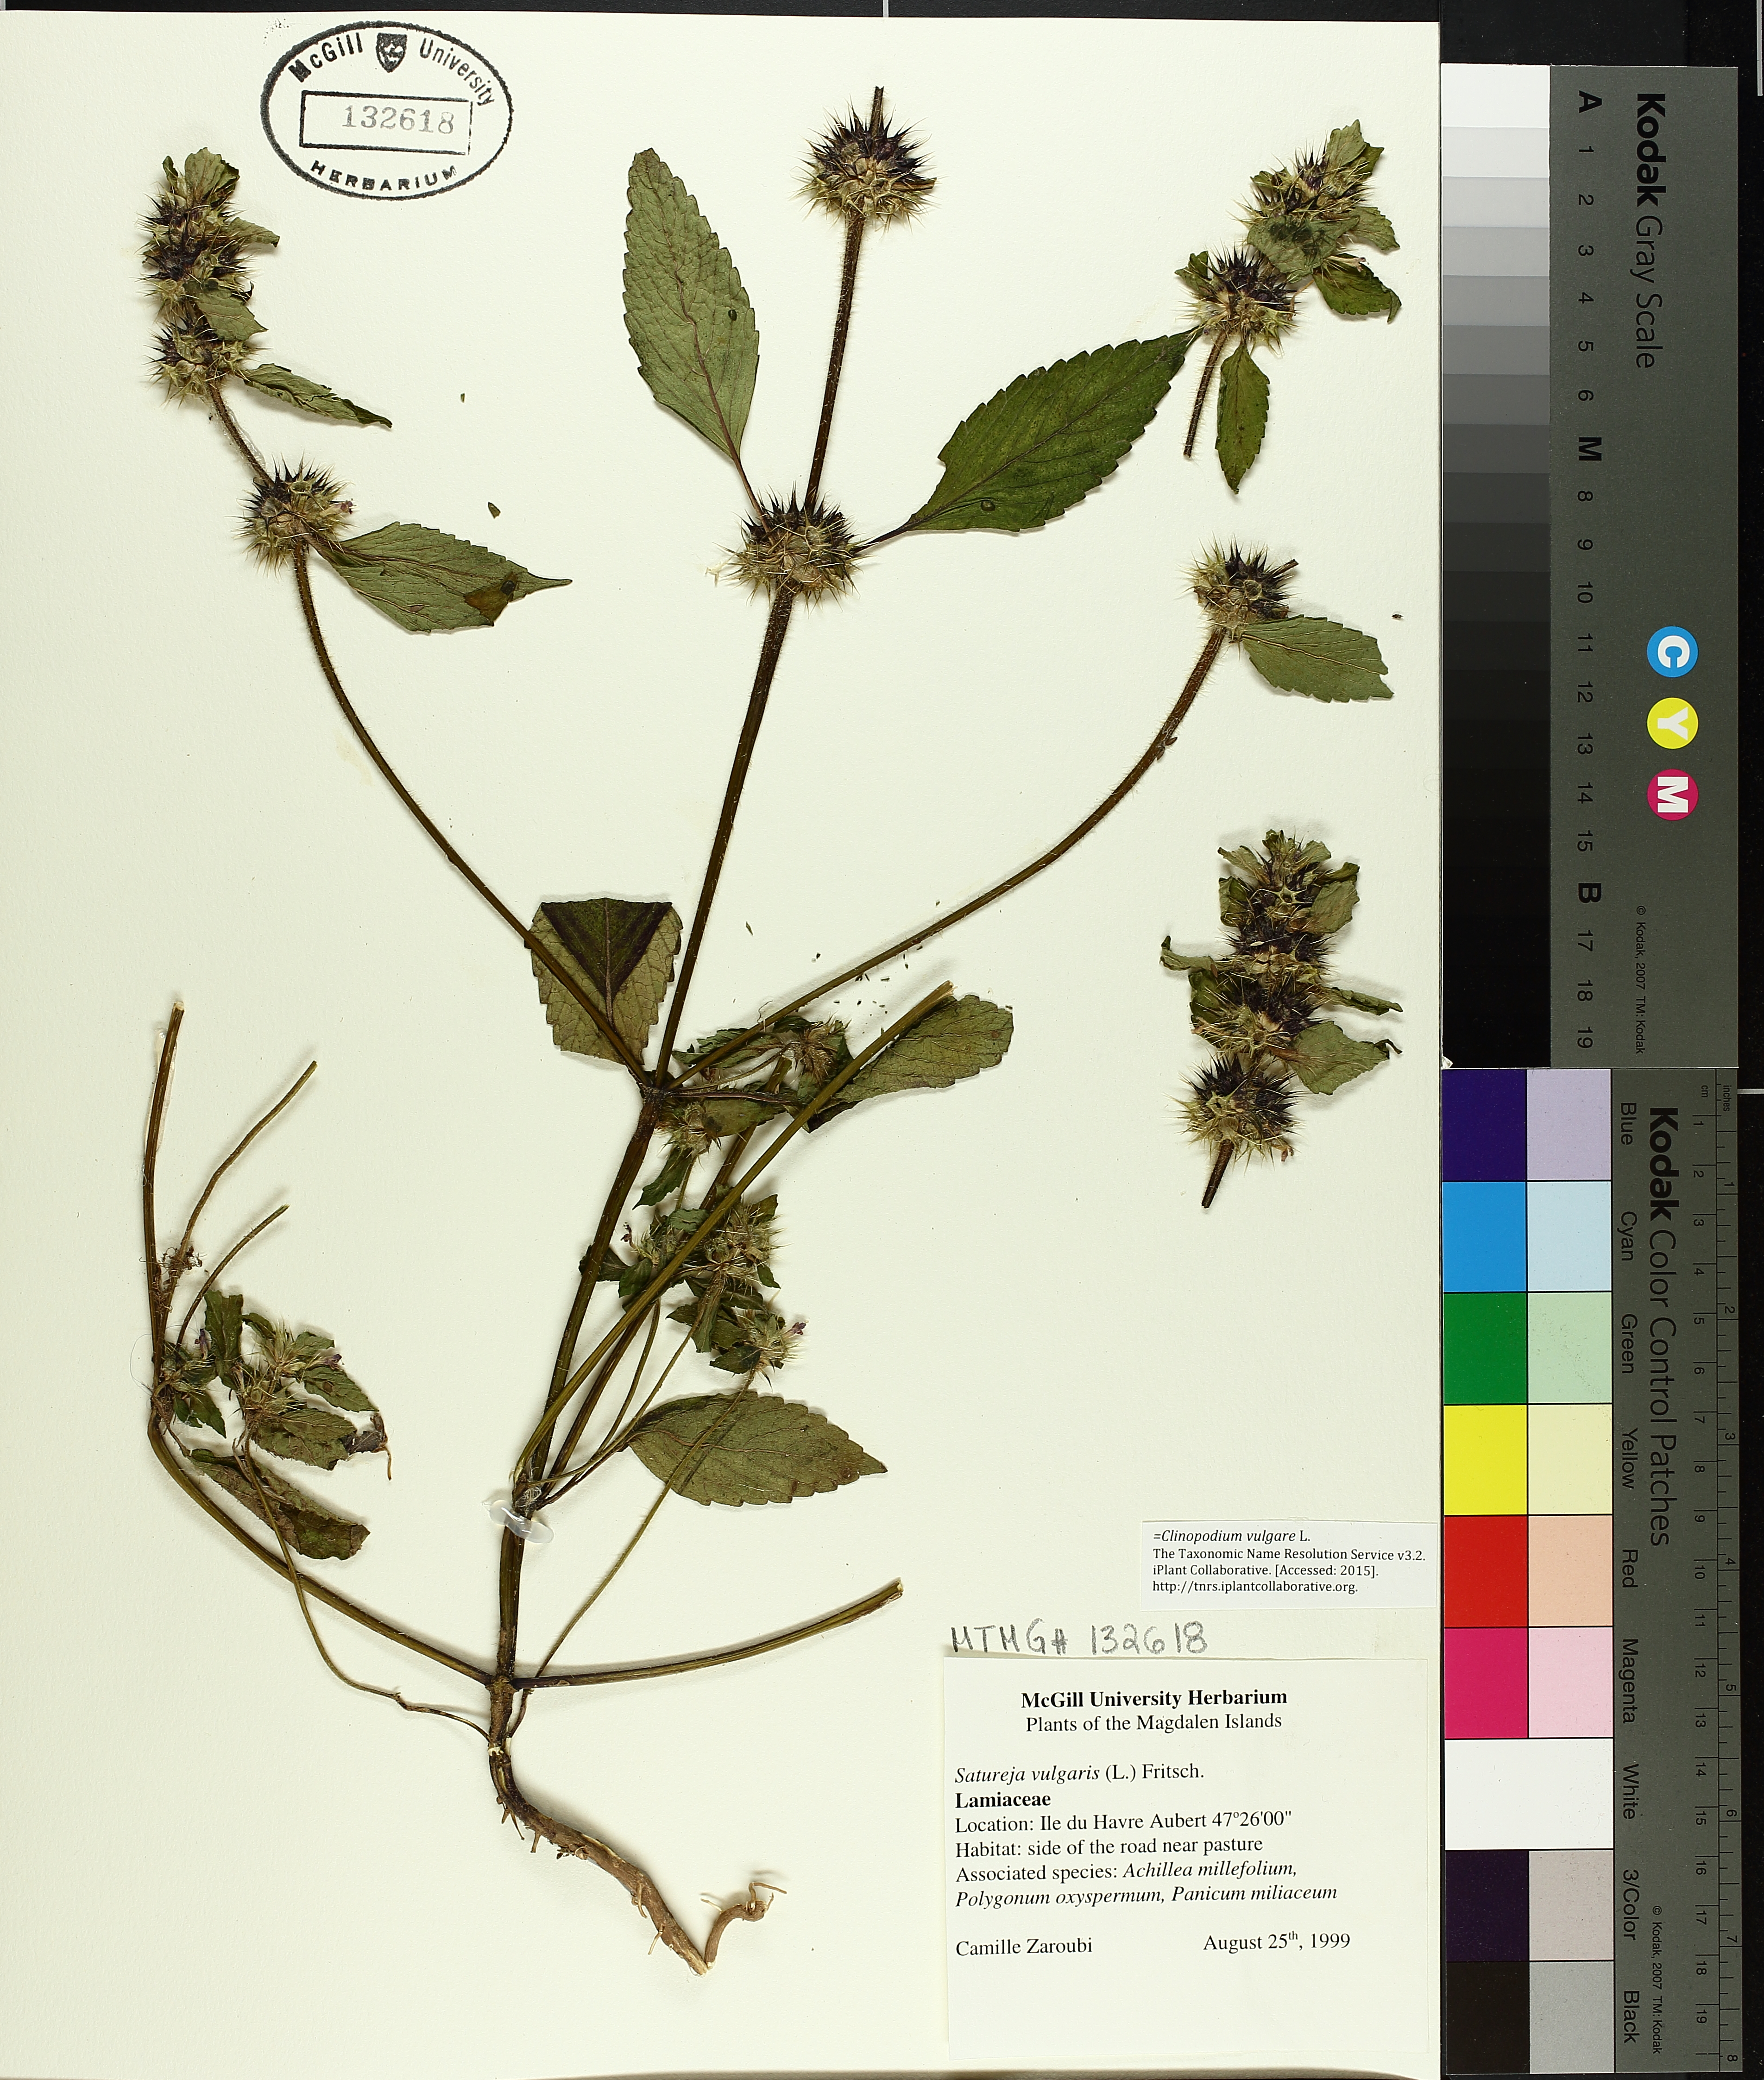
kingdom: Plantae
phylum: Tracheophyta
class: Magnoliopsida
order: Lamiales
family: Lamiaceae
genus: Clinopodium
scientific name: Clinopodium vulgare
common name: Wild basil
